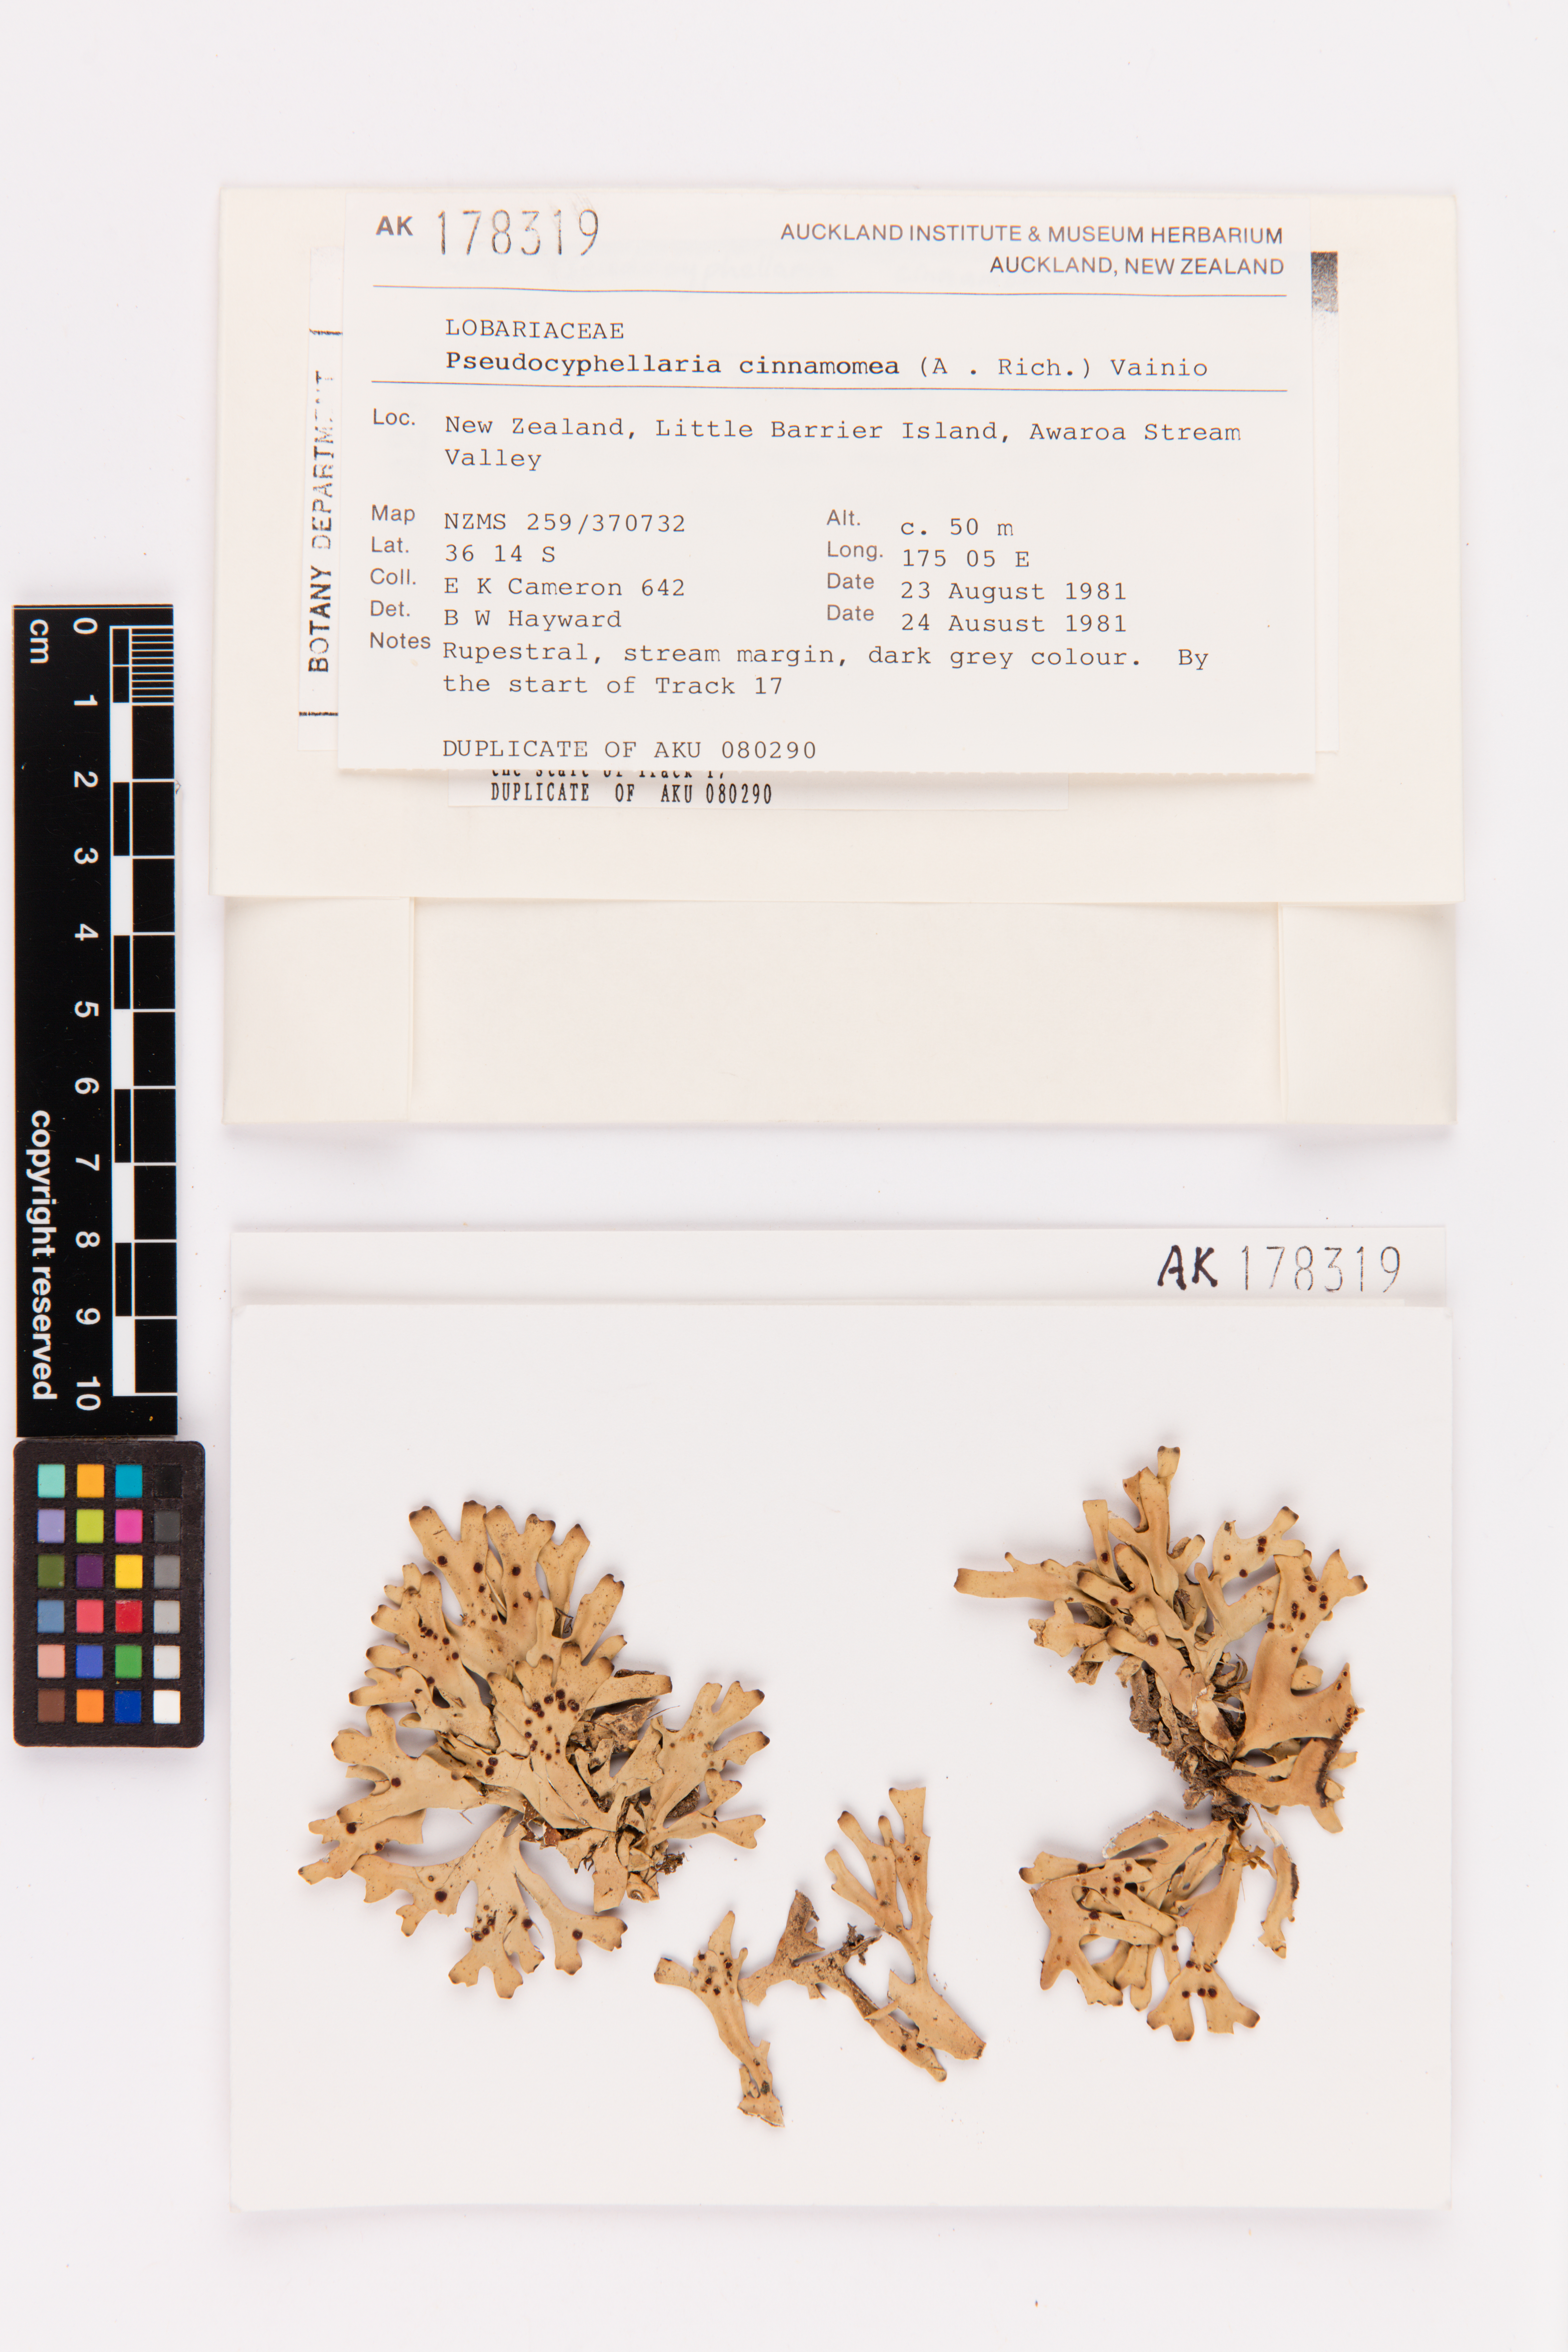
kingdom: Fungi
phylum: Ascomycota
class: Lecanoromycetes
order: Peltigerales
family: Lobariaceae
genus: Pseudocyphellaria
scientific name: Pseudocyphellaria cinnamomea
